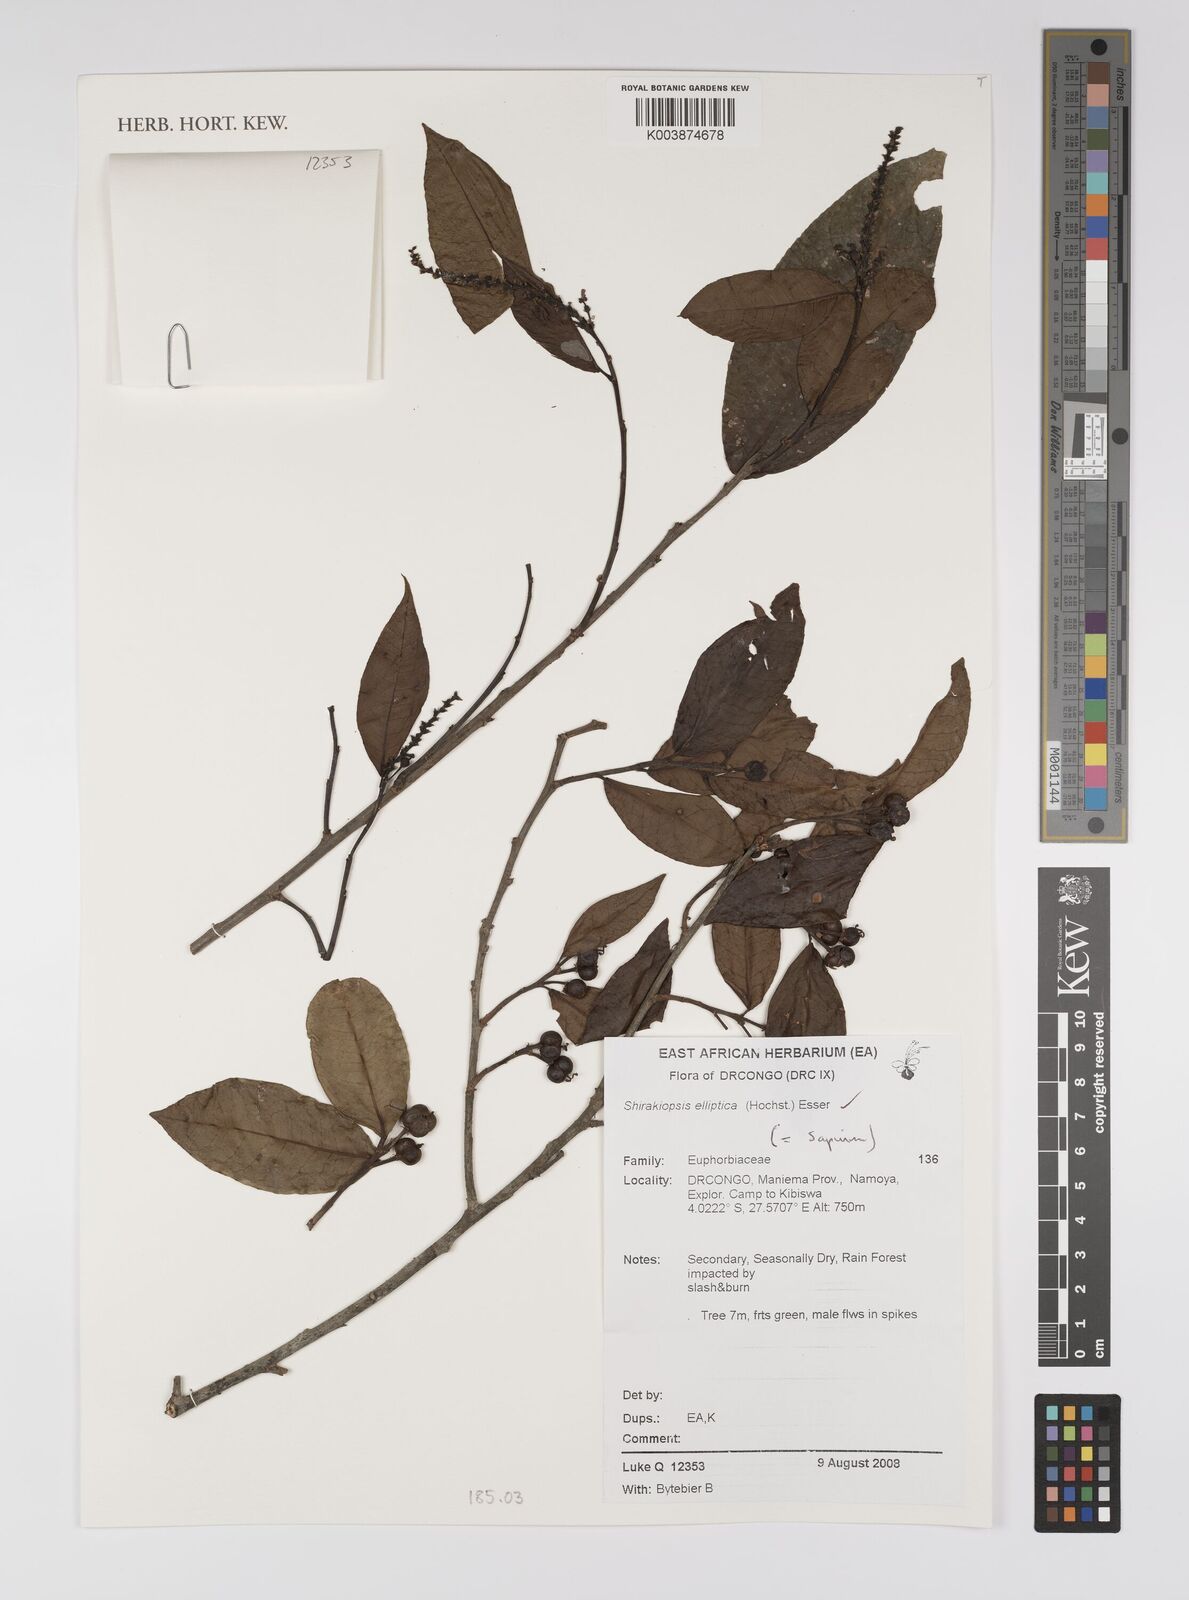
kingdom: Plantae
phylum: Tracheophyta
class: Magnoliopsida
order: Malpighiales
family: Euphorbiaceae
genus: Shirakiopsis
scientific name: Shirakiopsis elliptica
